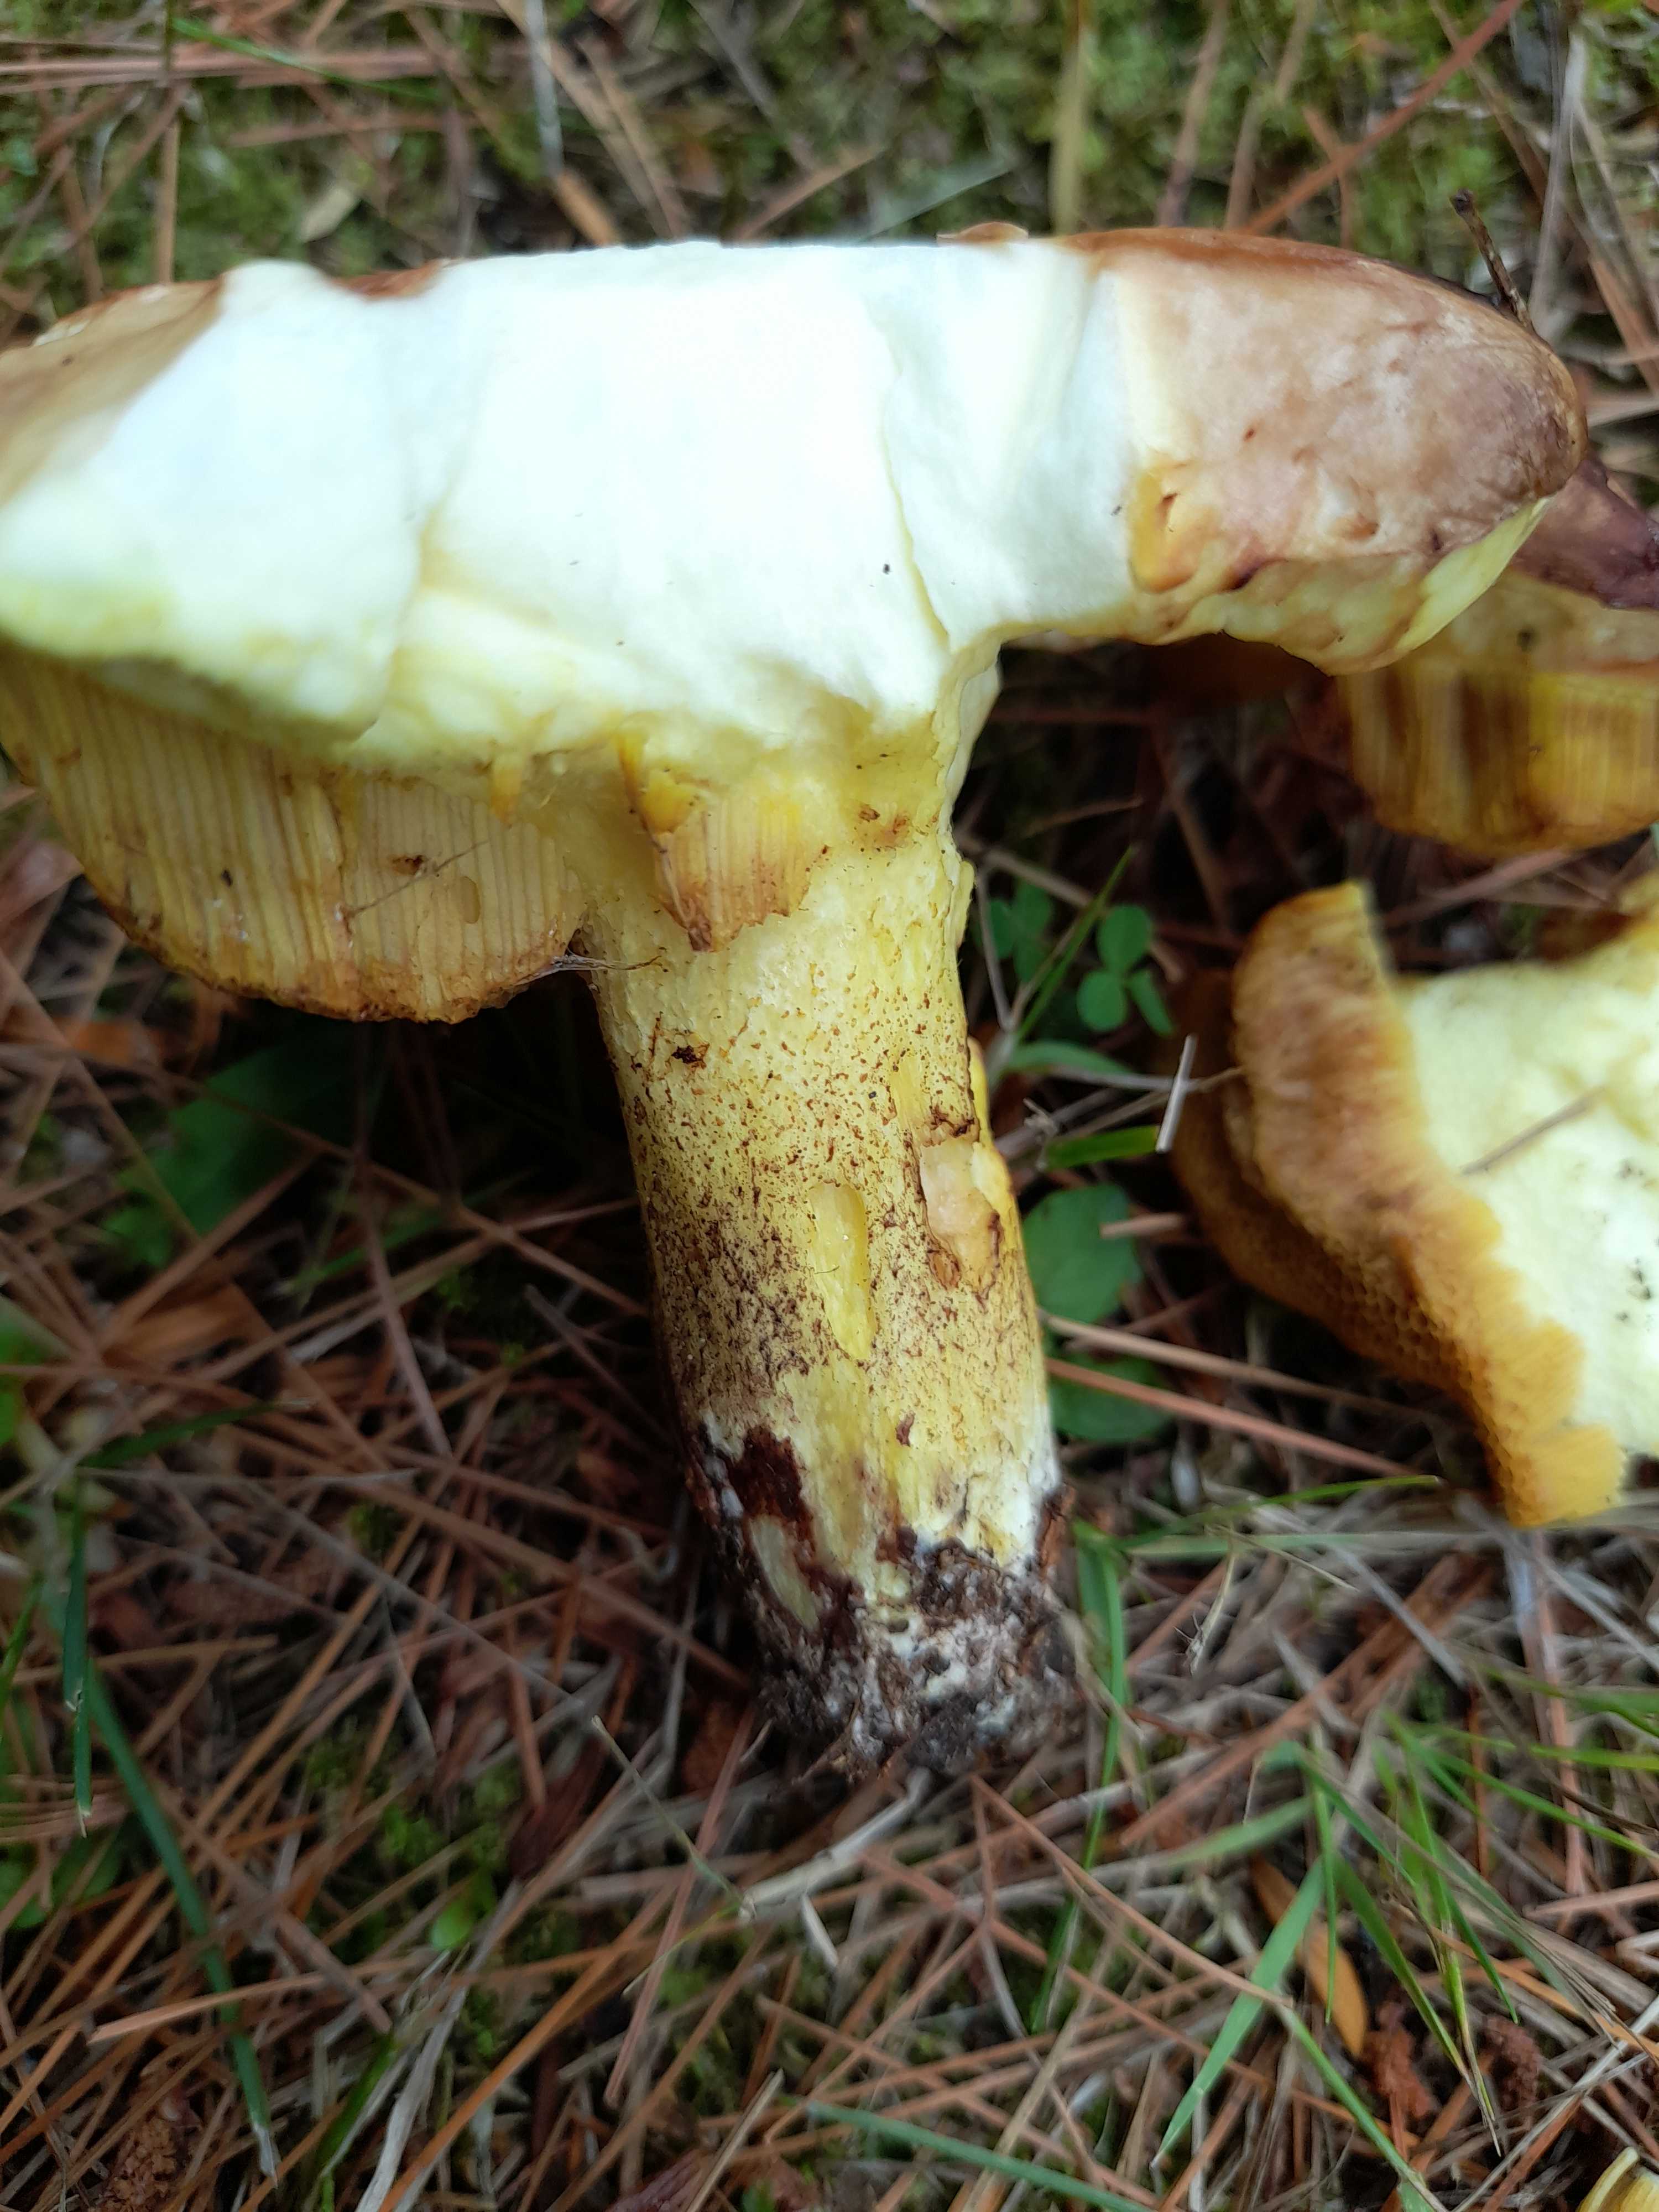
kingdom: Fungi
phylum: Basidiomycota
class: Agaricomycetes
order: Boletales
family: Suillaceae
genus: Suillus
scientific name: Suillus granulatus
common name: kornet slimrørhat
